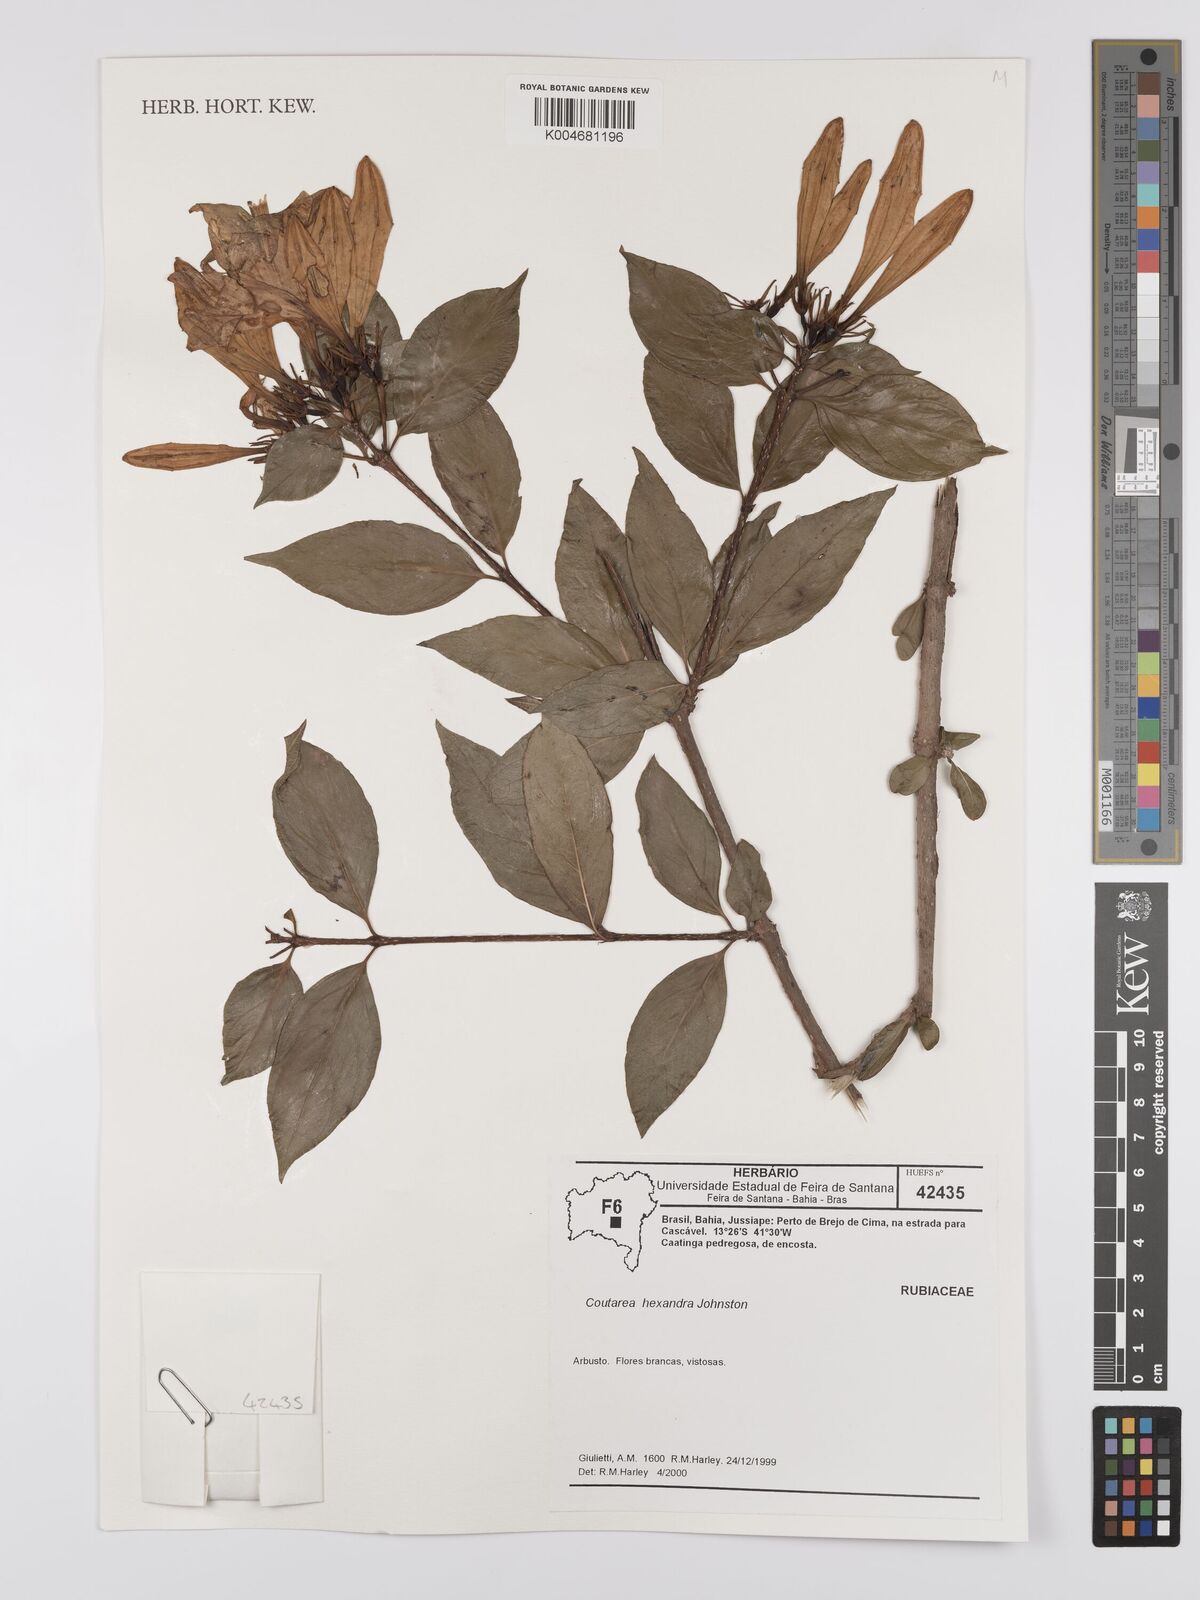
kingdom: Plantae
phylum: Tracheophyta
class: Magnoliopsida
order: Gentianales
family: Rubiaceae
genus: Coutarea
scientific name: Coutarea hexandra
